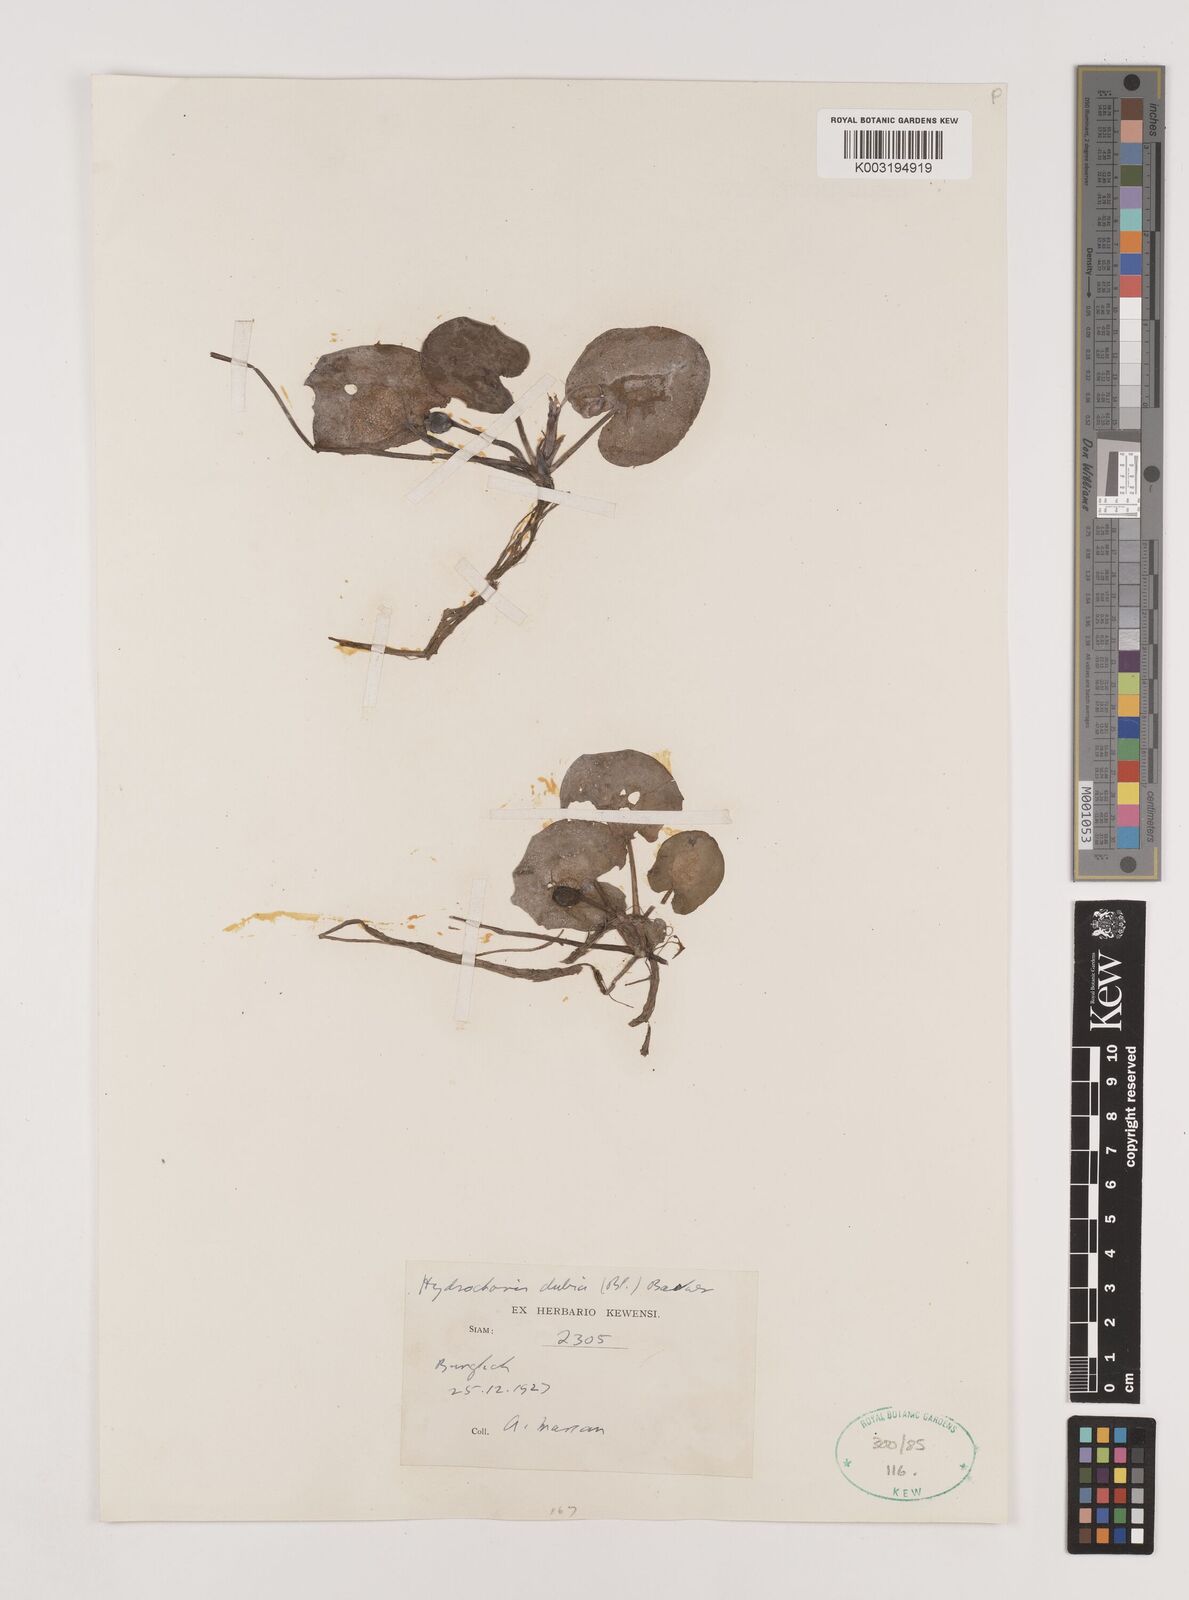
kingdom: Plantae
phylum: Tracheophyta
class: Liliopsida
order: Alismatales
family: Hydrocharitaceae
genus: Hydrocharis
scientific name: Hydrocharis dubia
